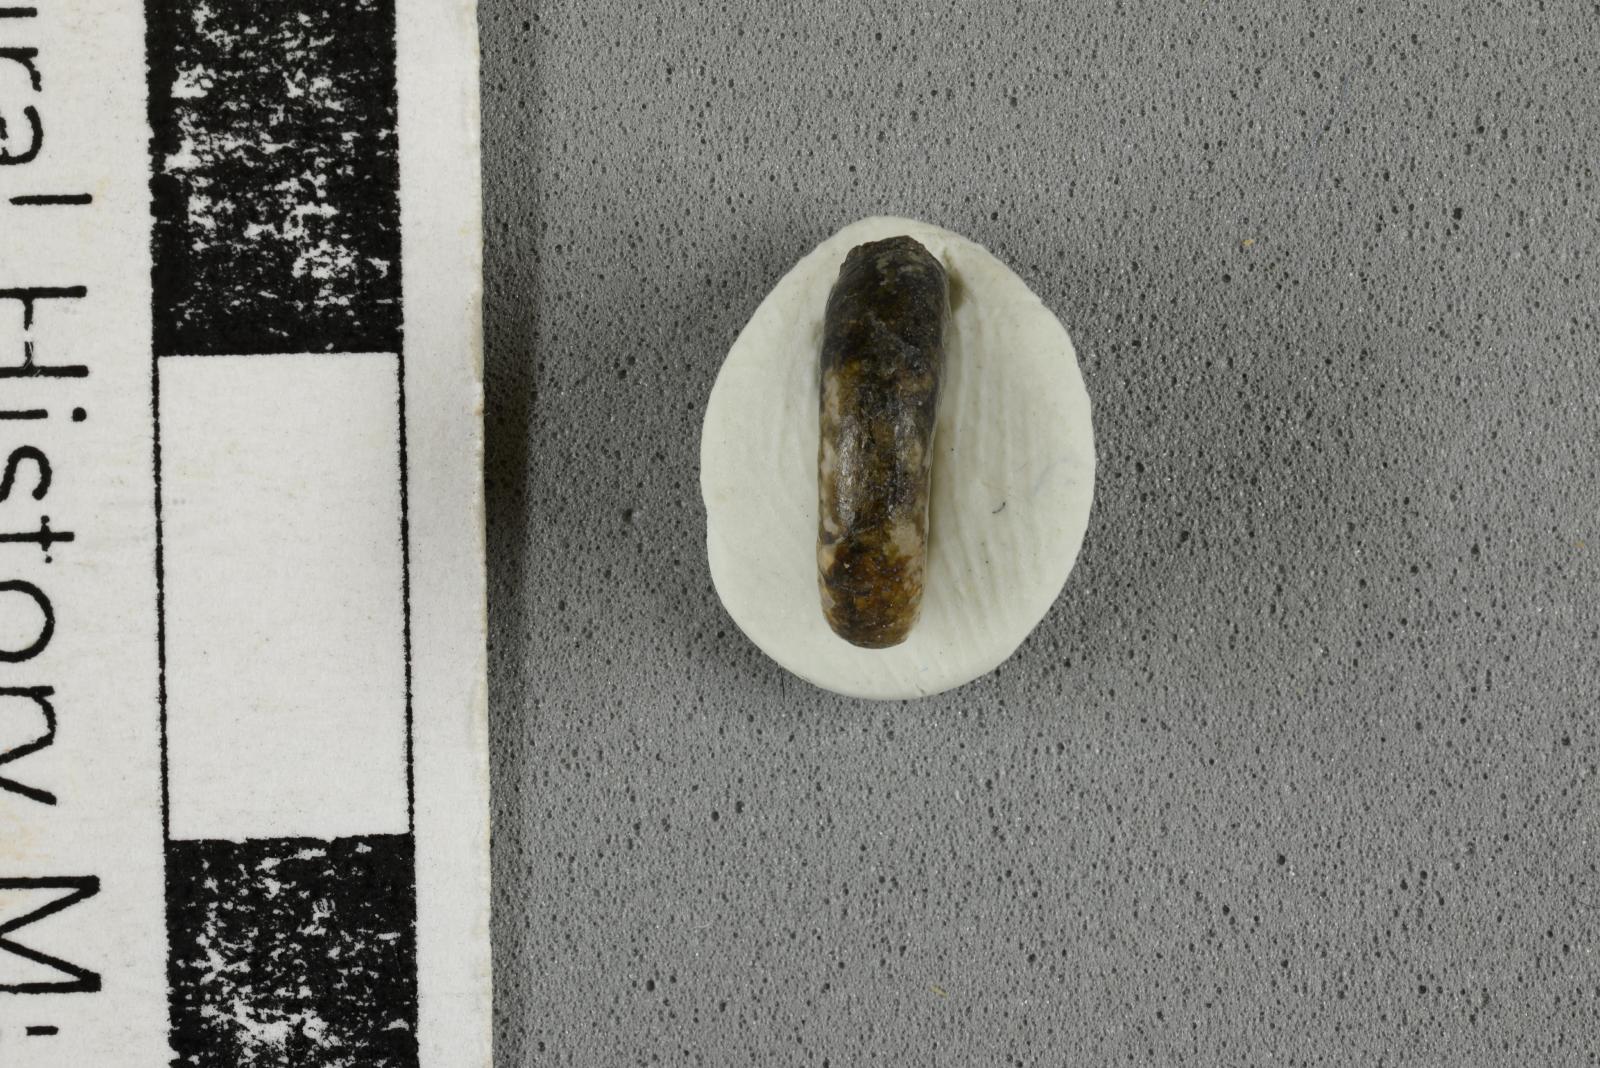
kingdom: Animalia
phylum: Mollusca
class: Cephalopoda
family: Scaphitidae
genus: Yezoites
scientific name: Yezoites puerculus
